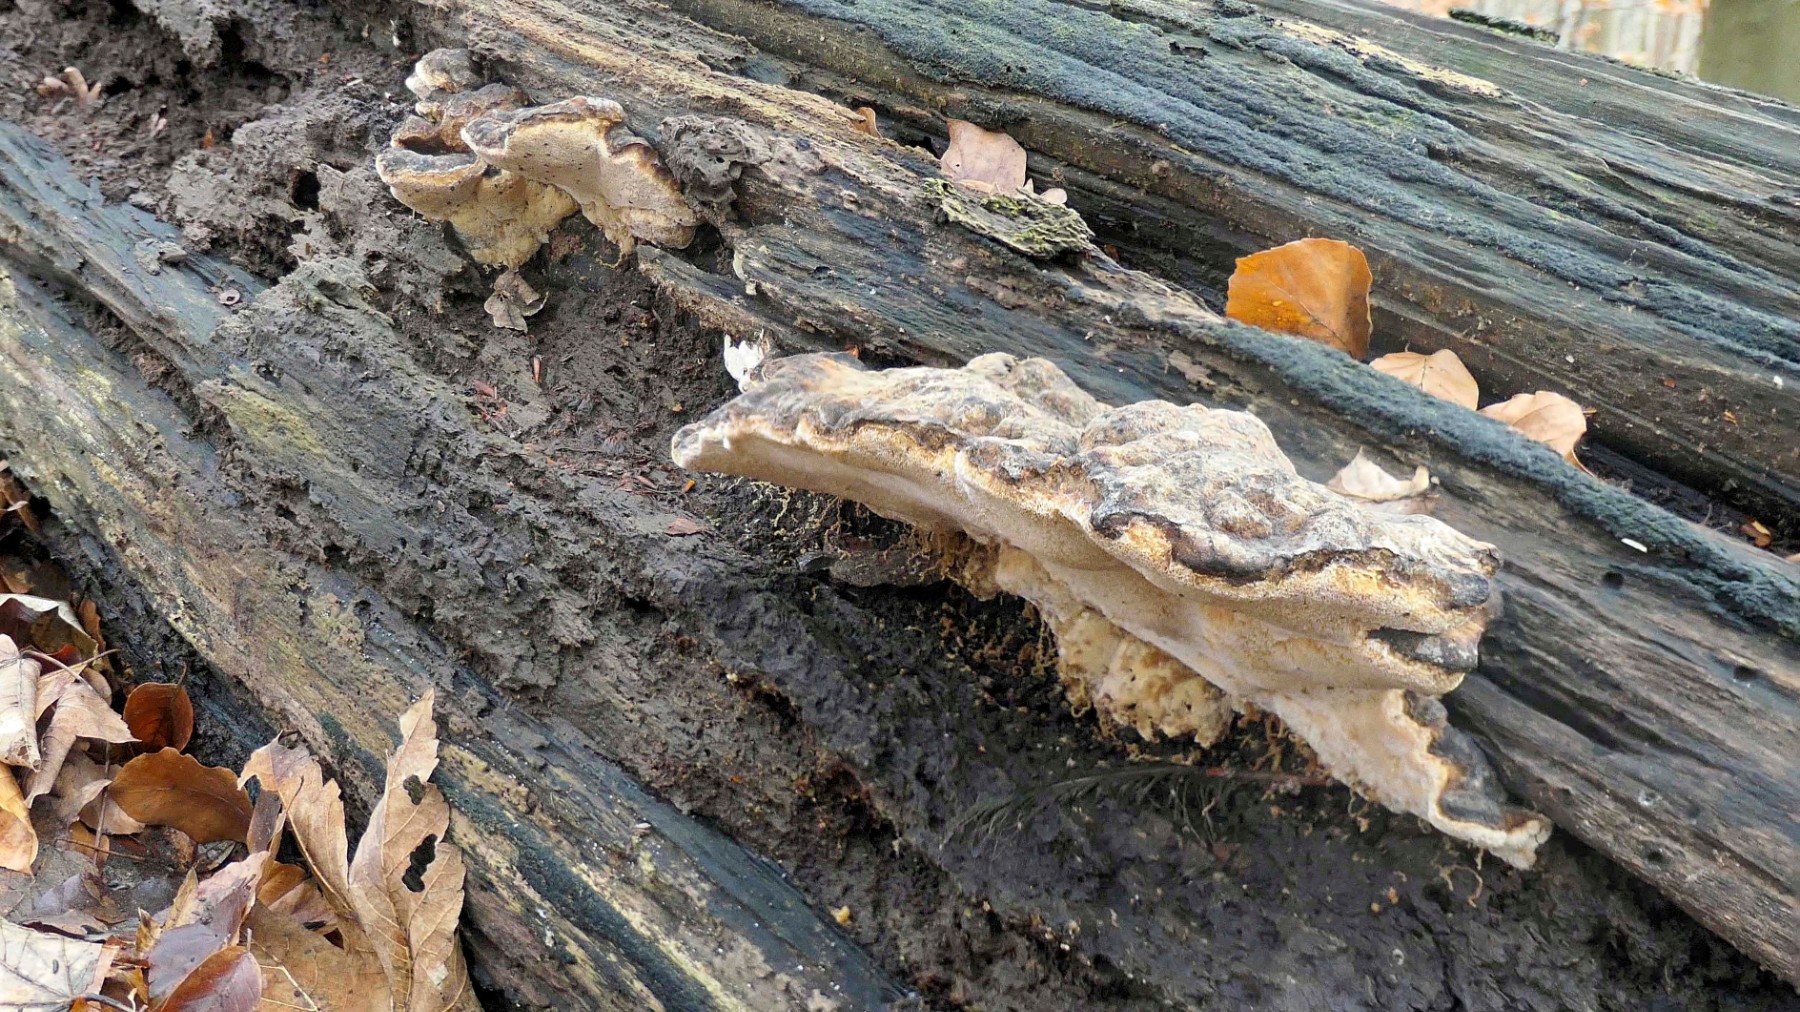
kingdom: Fungi
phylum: Basidiomycota
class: Agaricomycetes
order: Polyporales
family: Ischnodermataceae
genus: Ischnoderma
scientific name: Ischnoderma resinosum
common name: løv-tjæreporesvamp
